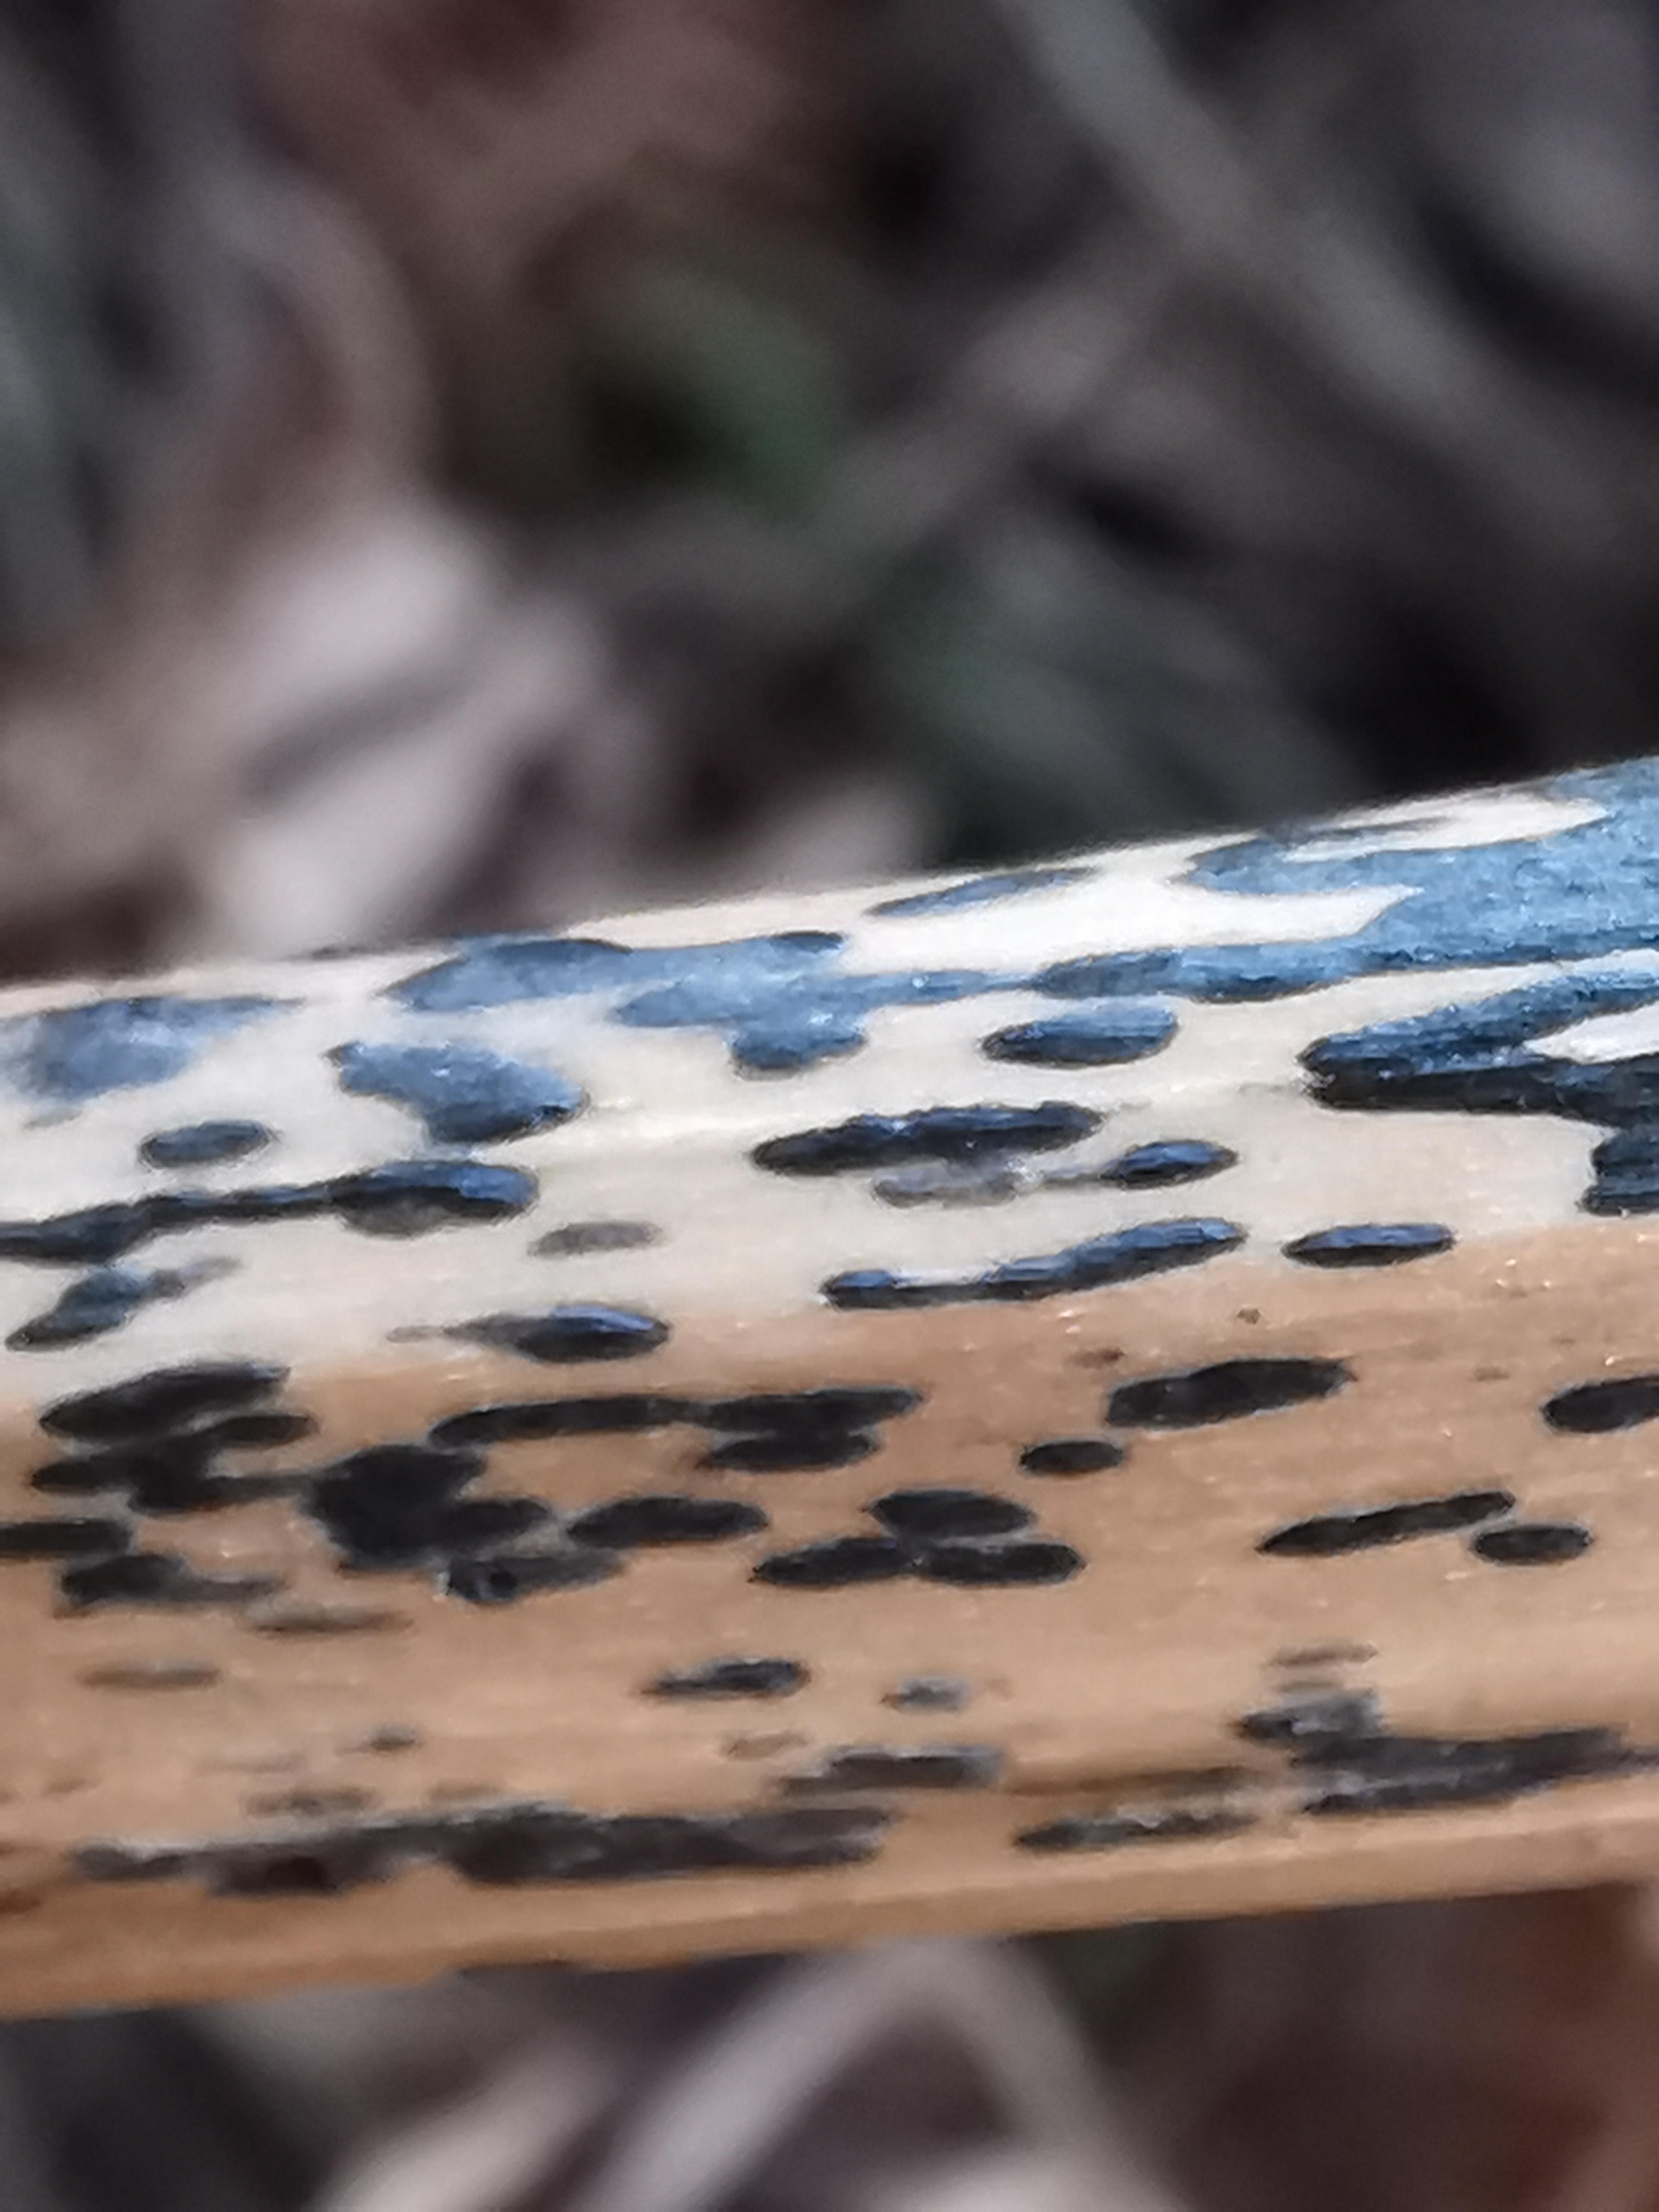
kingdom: Fungi
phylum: Ascomycota
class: Dothideomycetes
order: Pleosporales
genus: Rhopographus
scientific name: Rhopographus filicinus
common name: Bracken map
